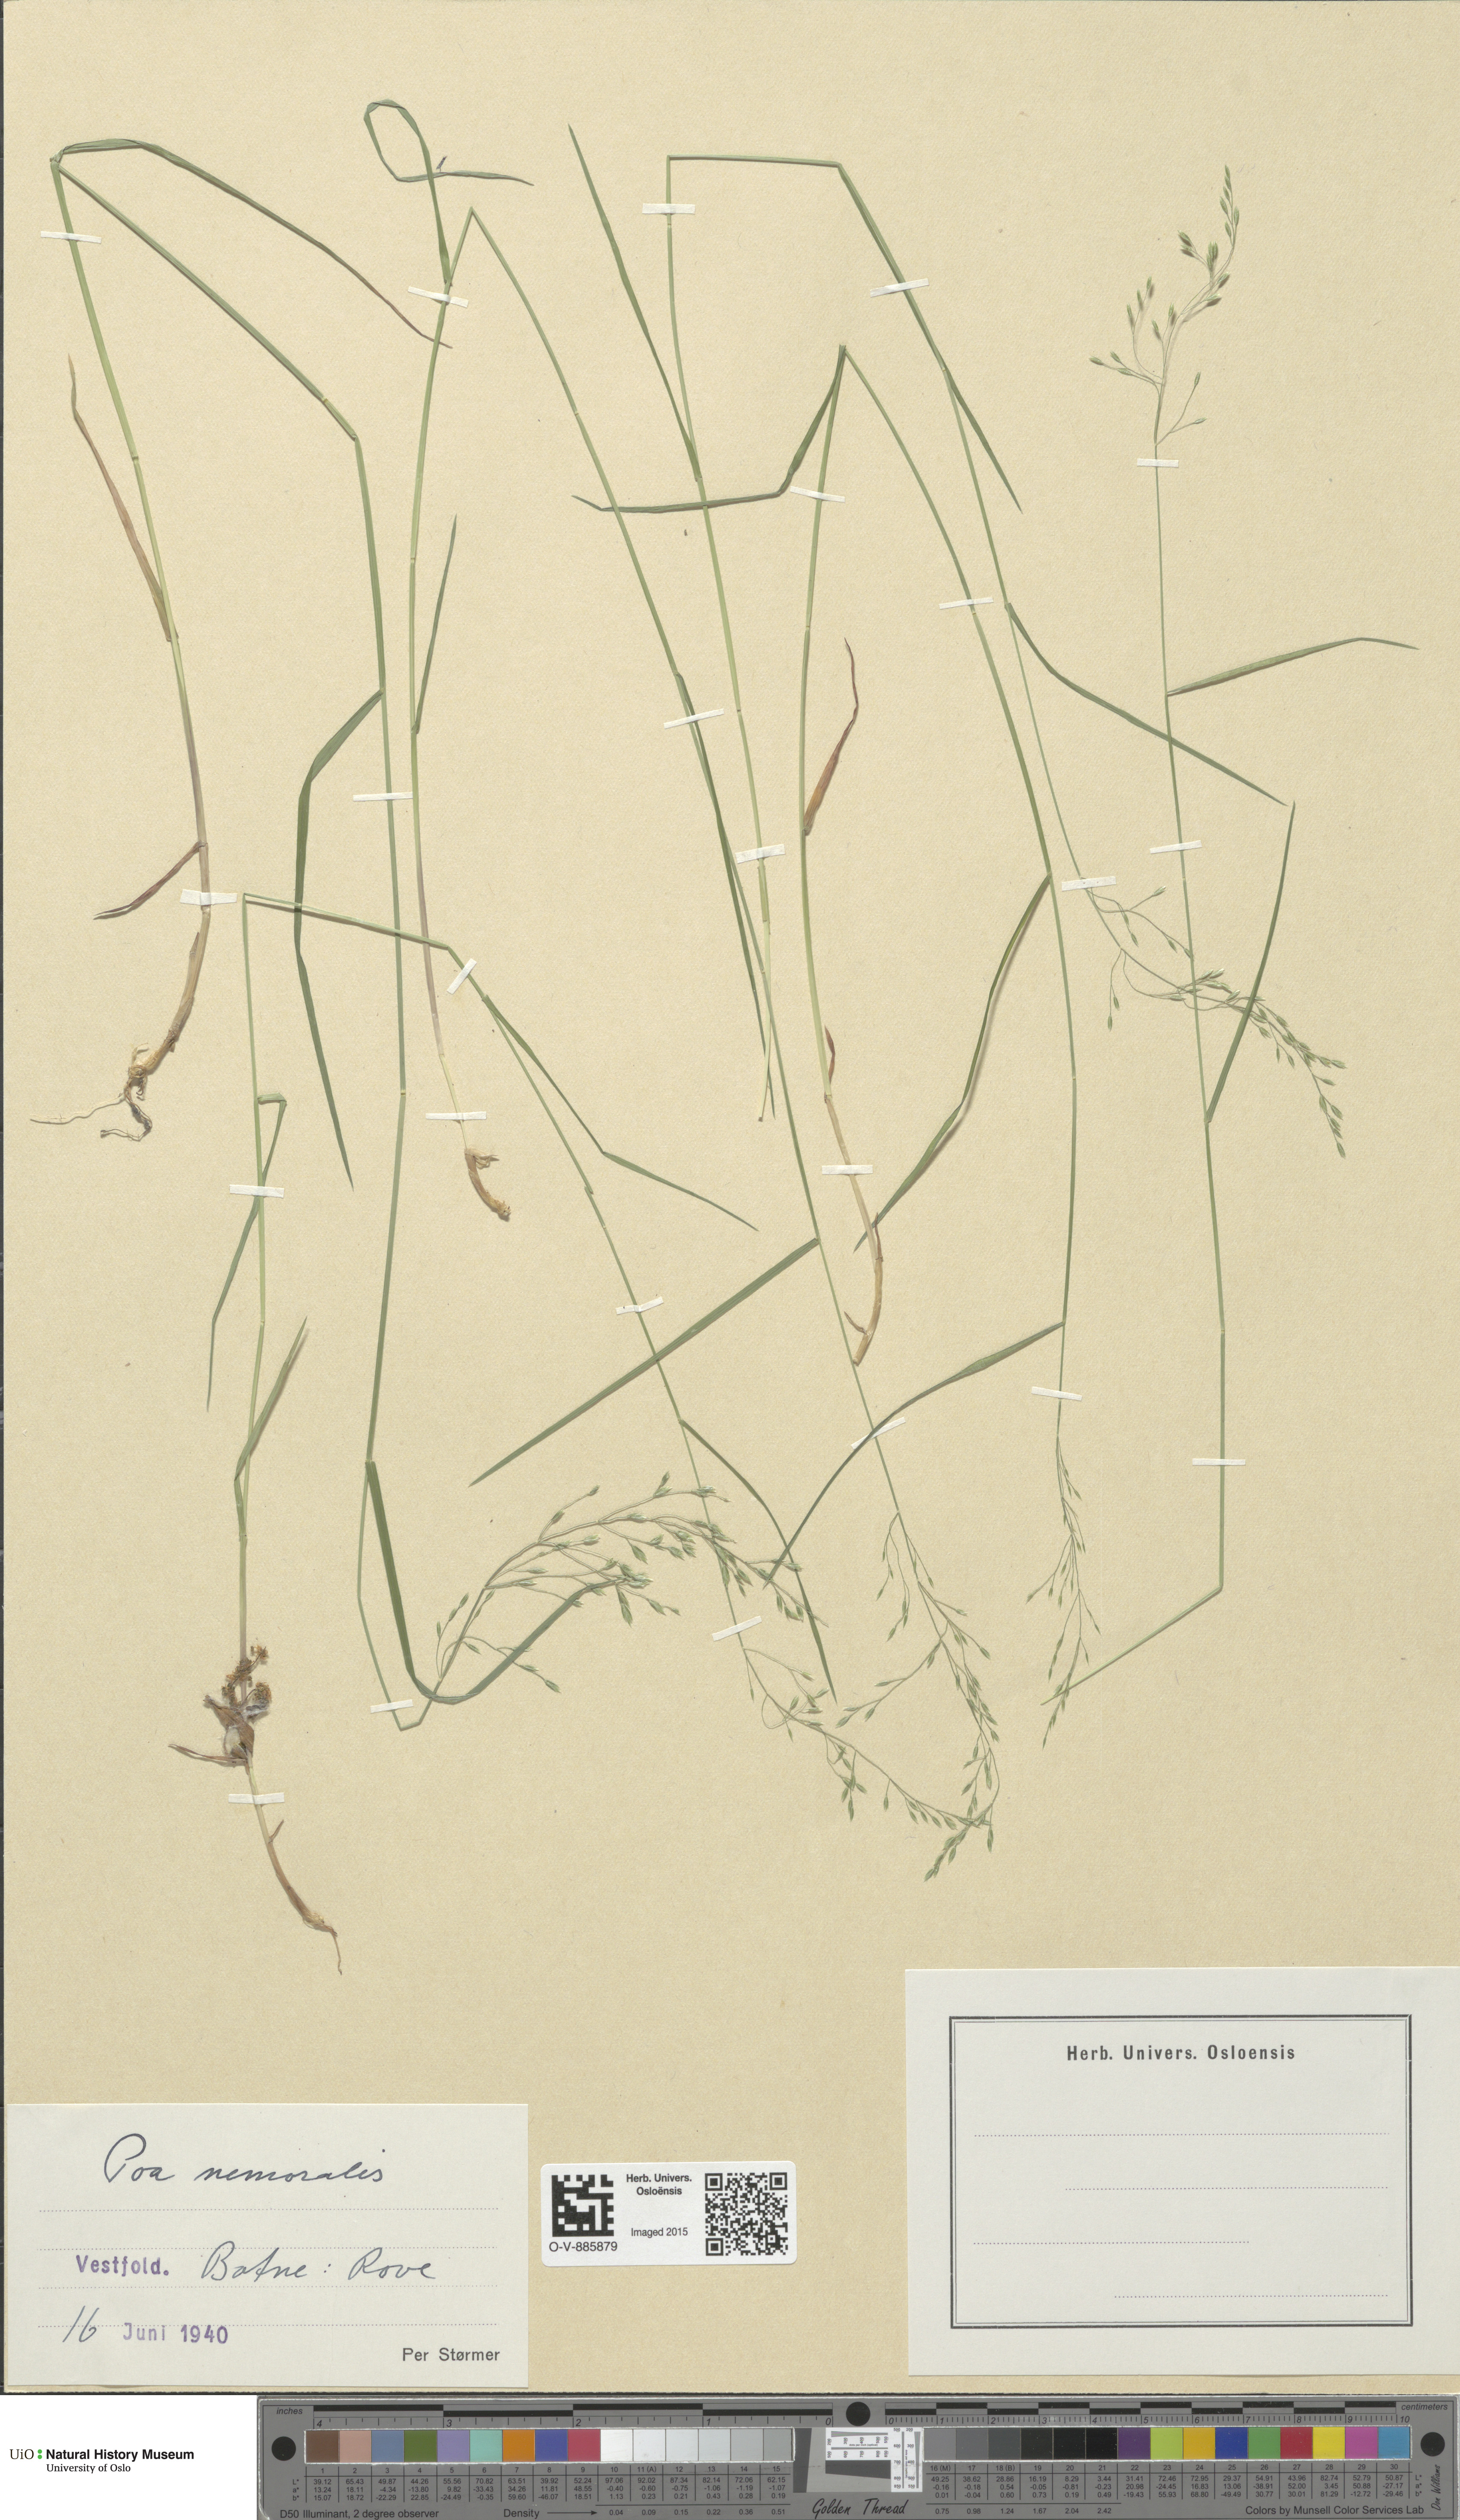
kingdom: Plantae
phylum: Tracheophyta
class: Liliopsida
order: Poales
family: Poaceae
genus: Poa
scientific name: Poa nemoralis
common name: Wood bluegrass
